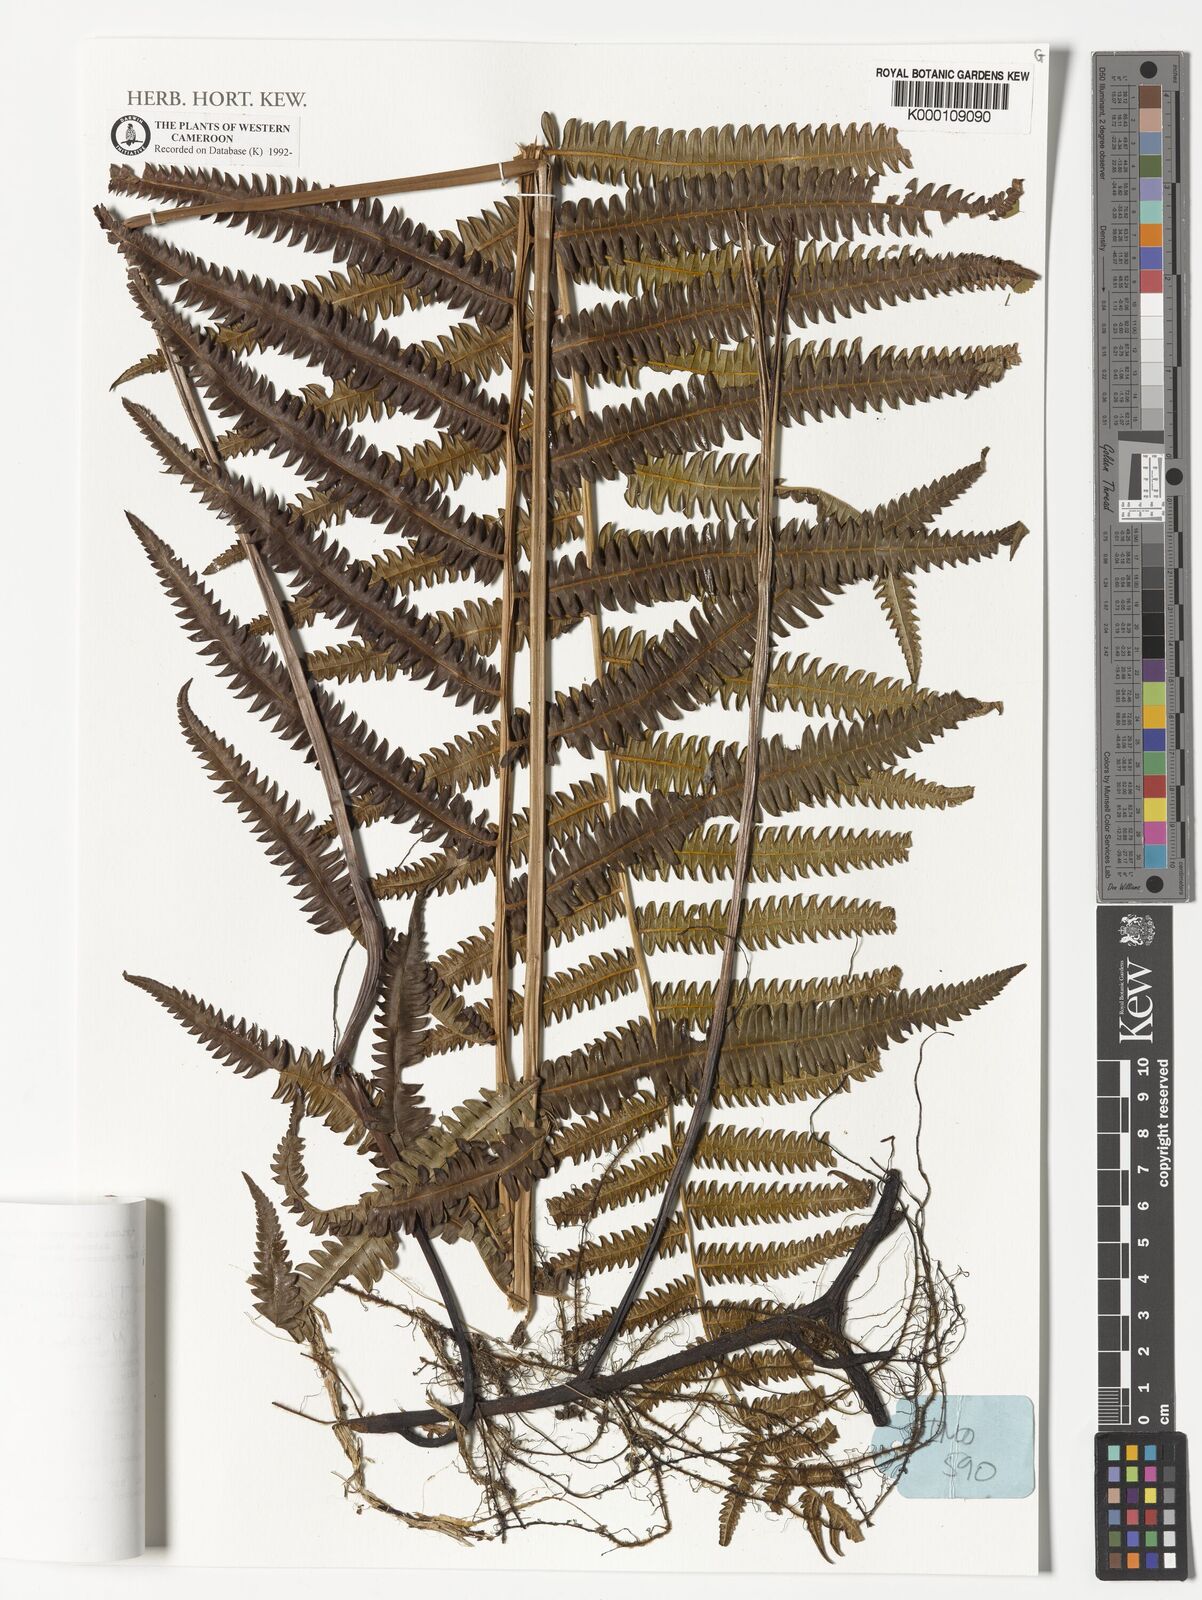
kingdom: Plantae
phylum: Tracheophyta
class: Polypodiopsida
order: Polypodiales
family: Thelypteridaceae
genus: Cyclosorus
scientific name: Cyclosorus striatus
